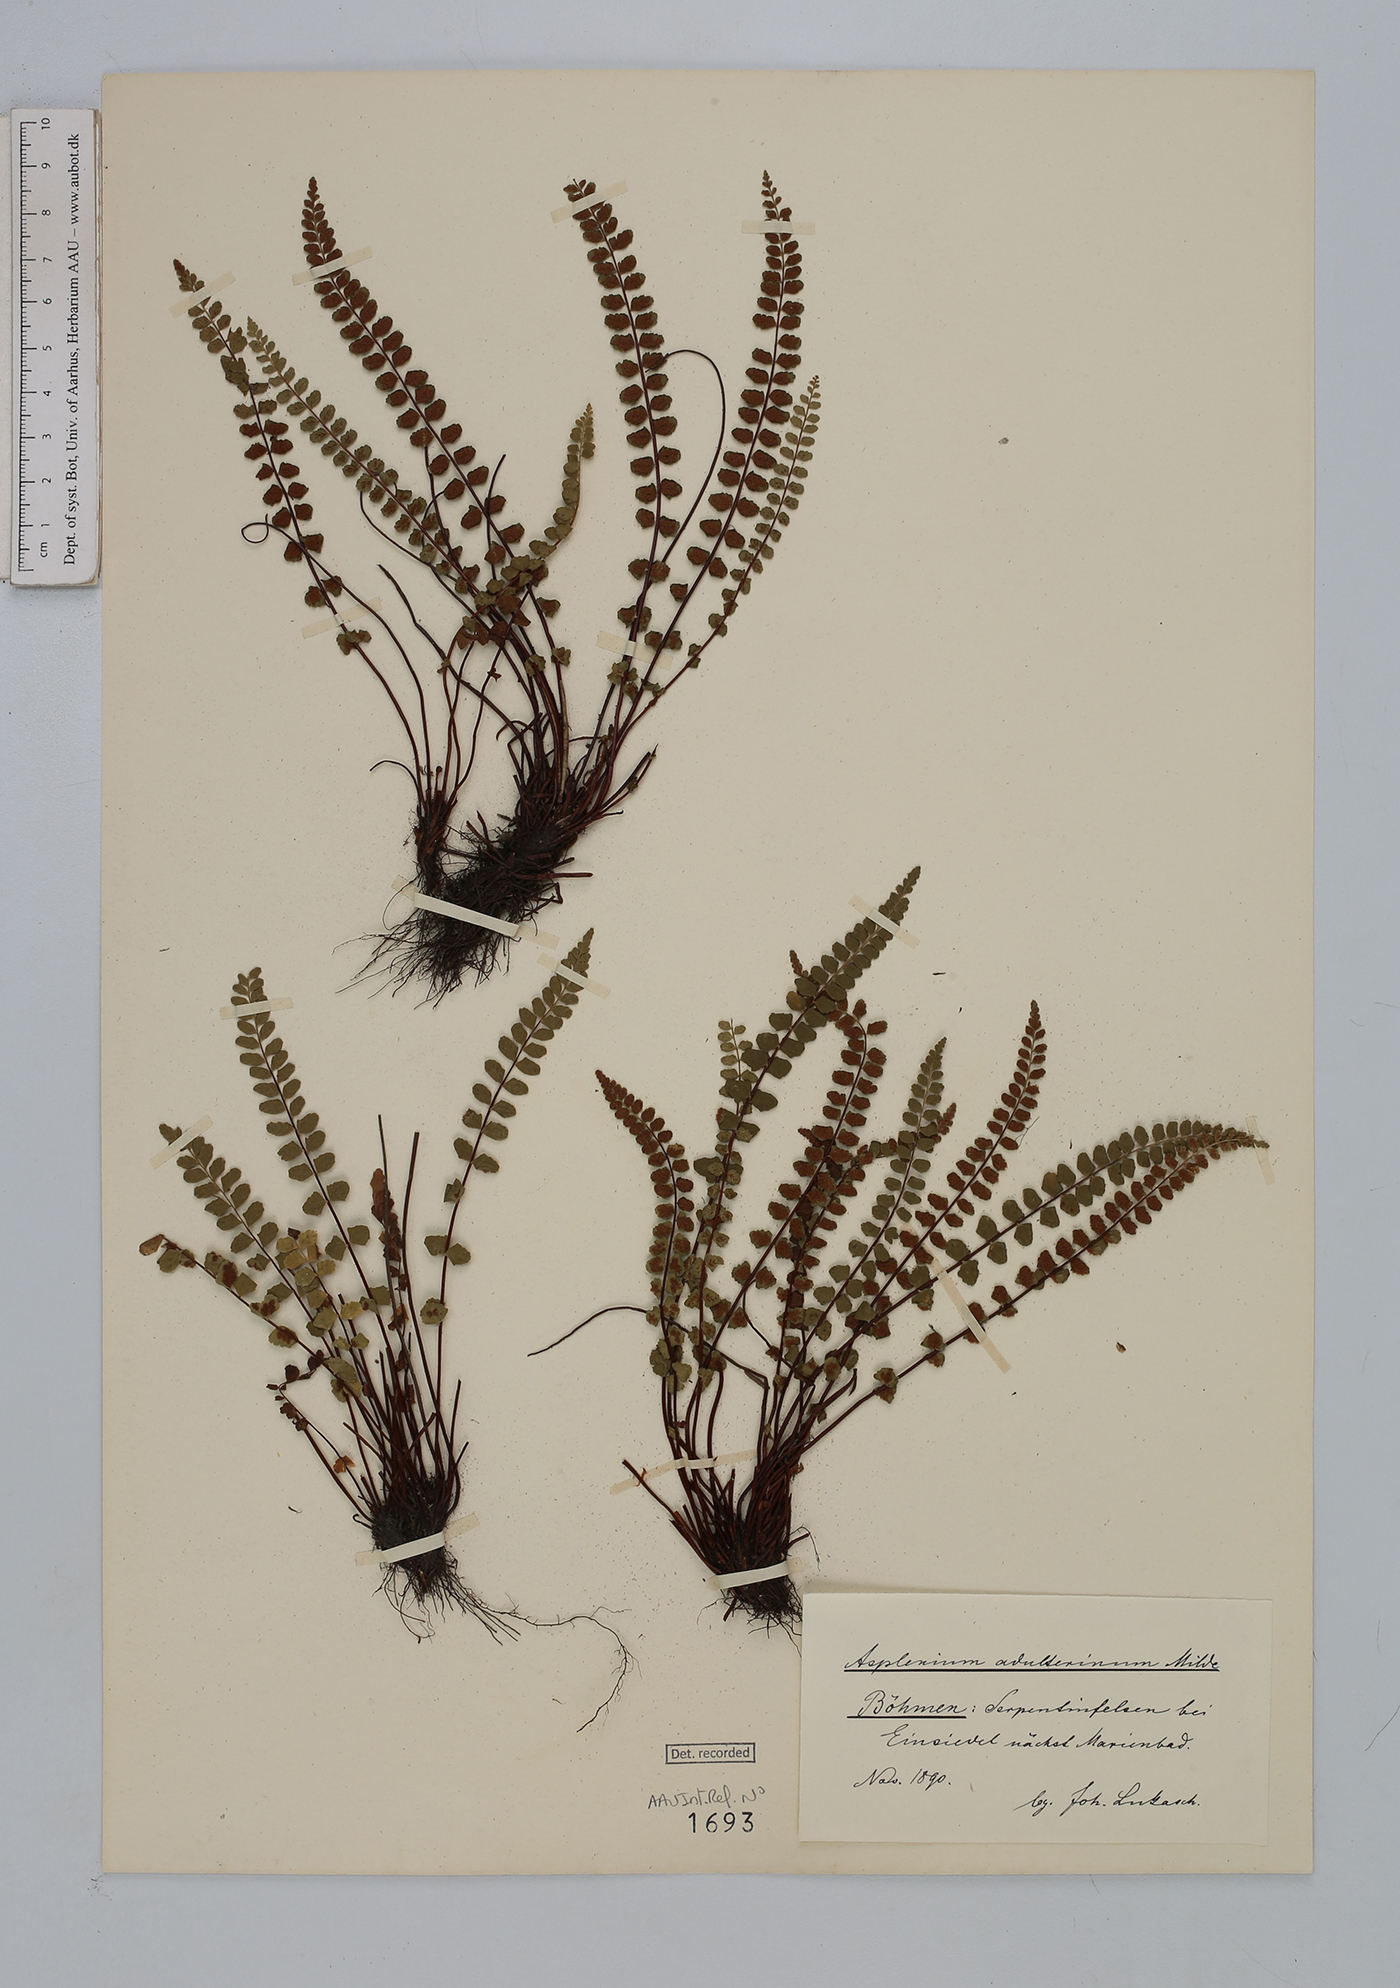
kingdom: Plantae
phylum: Tracheophyta
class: Polypodiopsida
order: Polypodiales
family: Aspleniaceae
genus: Asplenium
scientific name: Asplenium adulterinum
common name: Adulterated spleenwort
